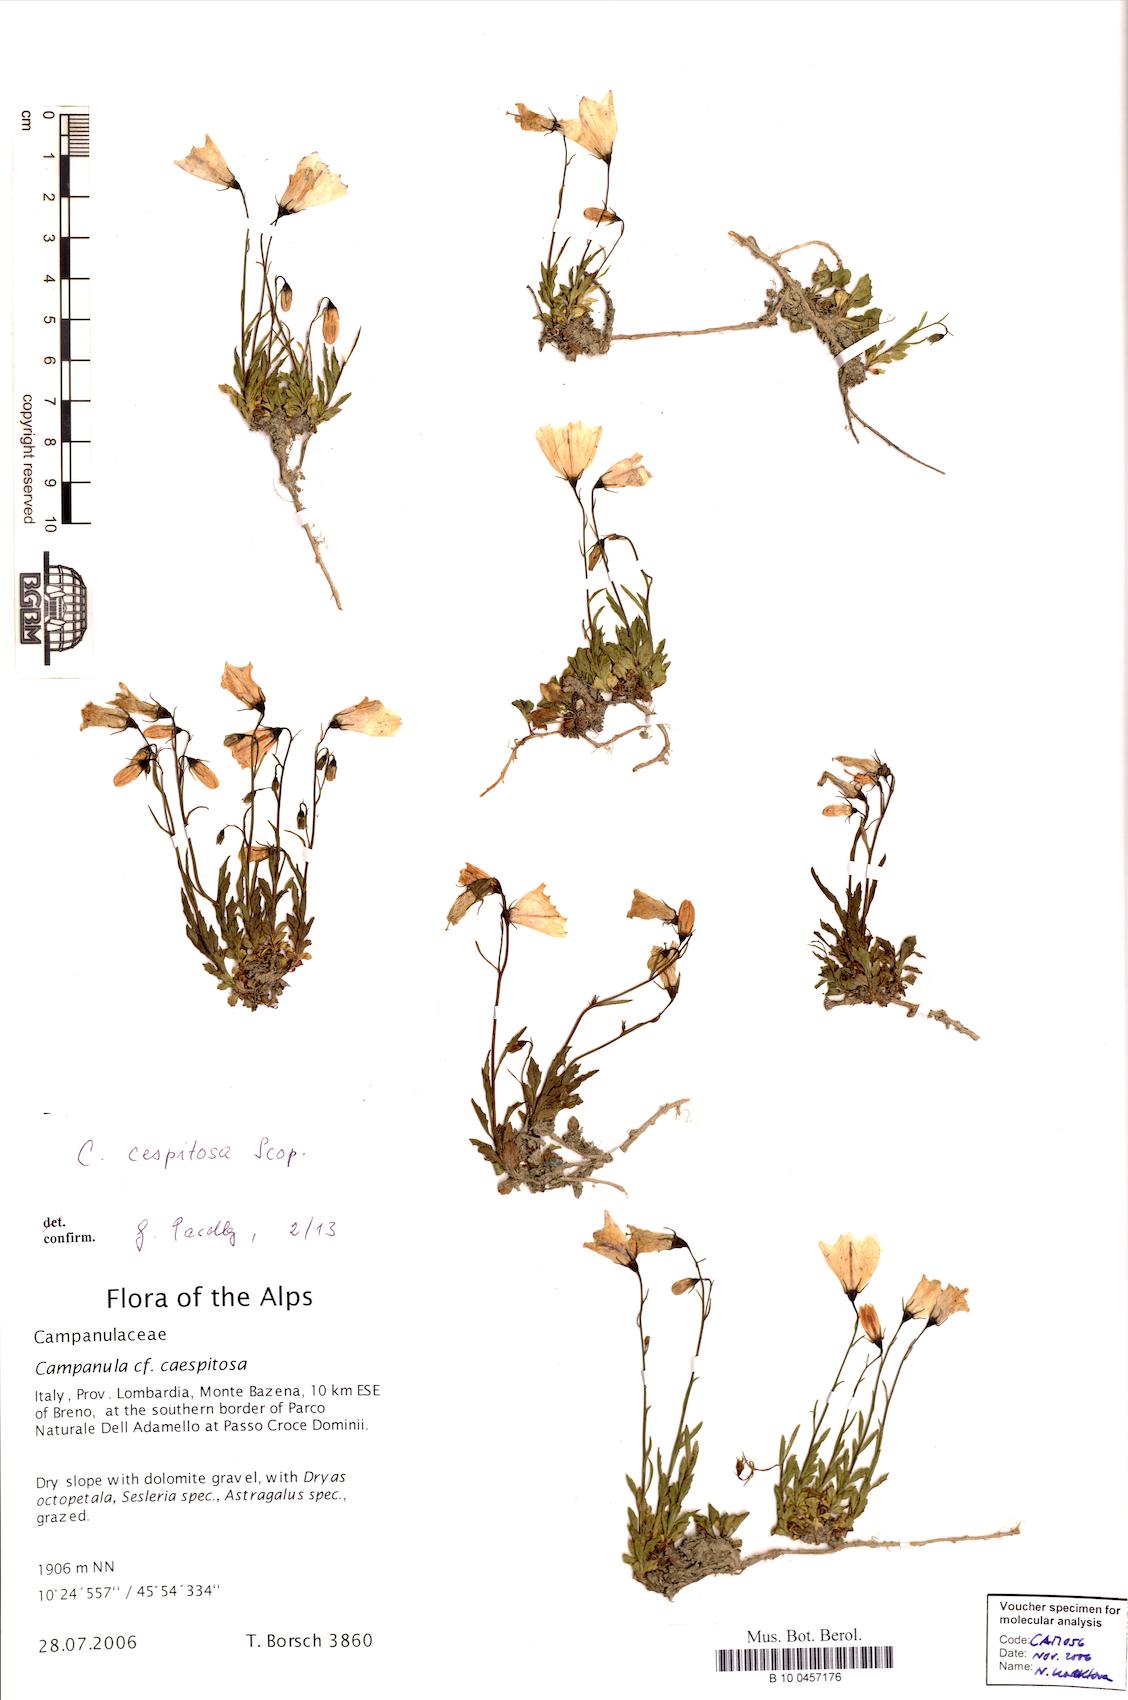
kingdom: Plantae
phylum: Tracheophyta
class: Magnoliopsida
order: Asterales
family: Campanulaceae
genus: Campanula
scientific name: Campanula cespitosa
